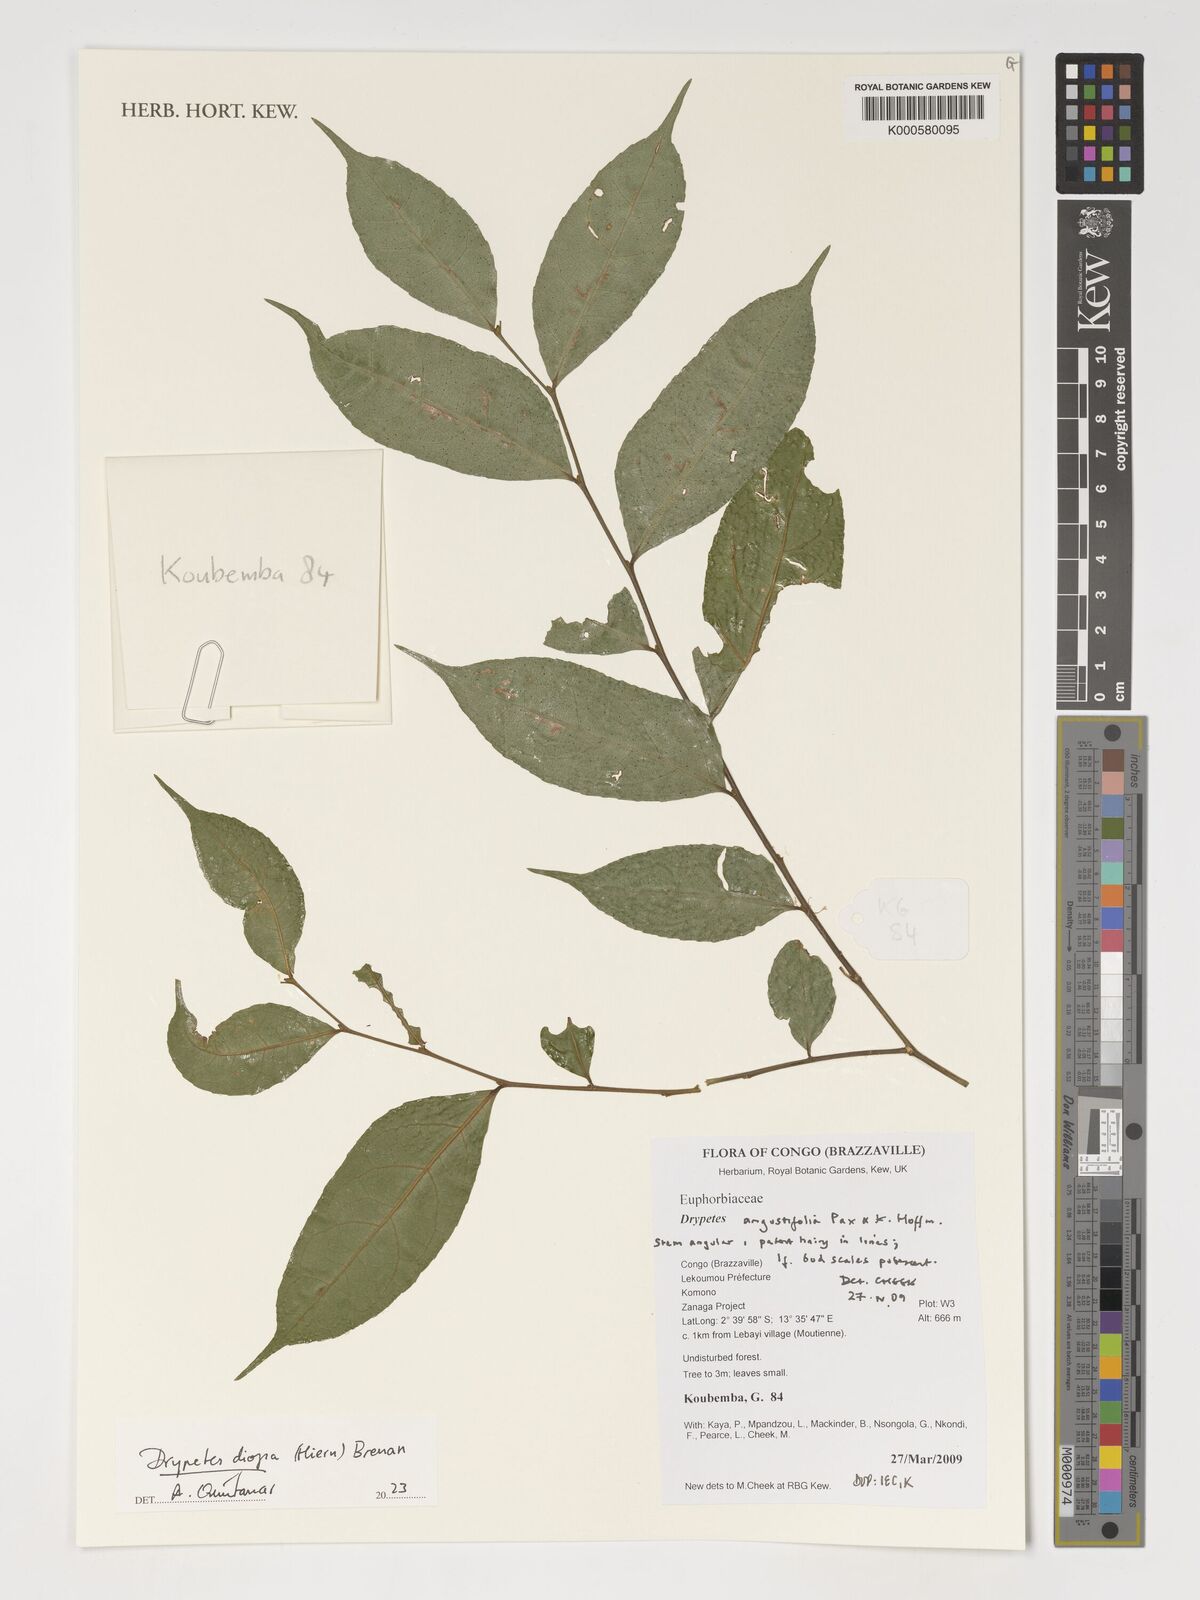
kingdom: Plantae
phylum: Tracheophyta
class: Magnoliopsida
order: Malpighiales
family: Putranjivaceae
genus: Drypetes
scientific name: Drypetes diopa
